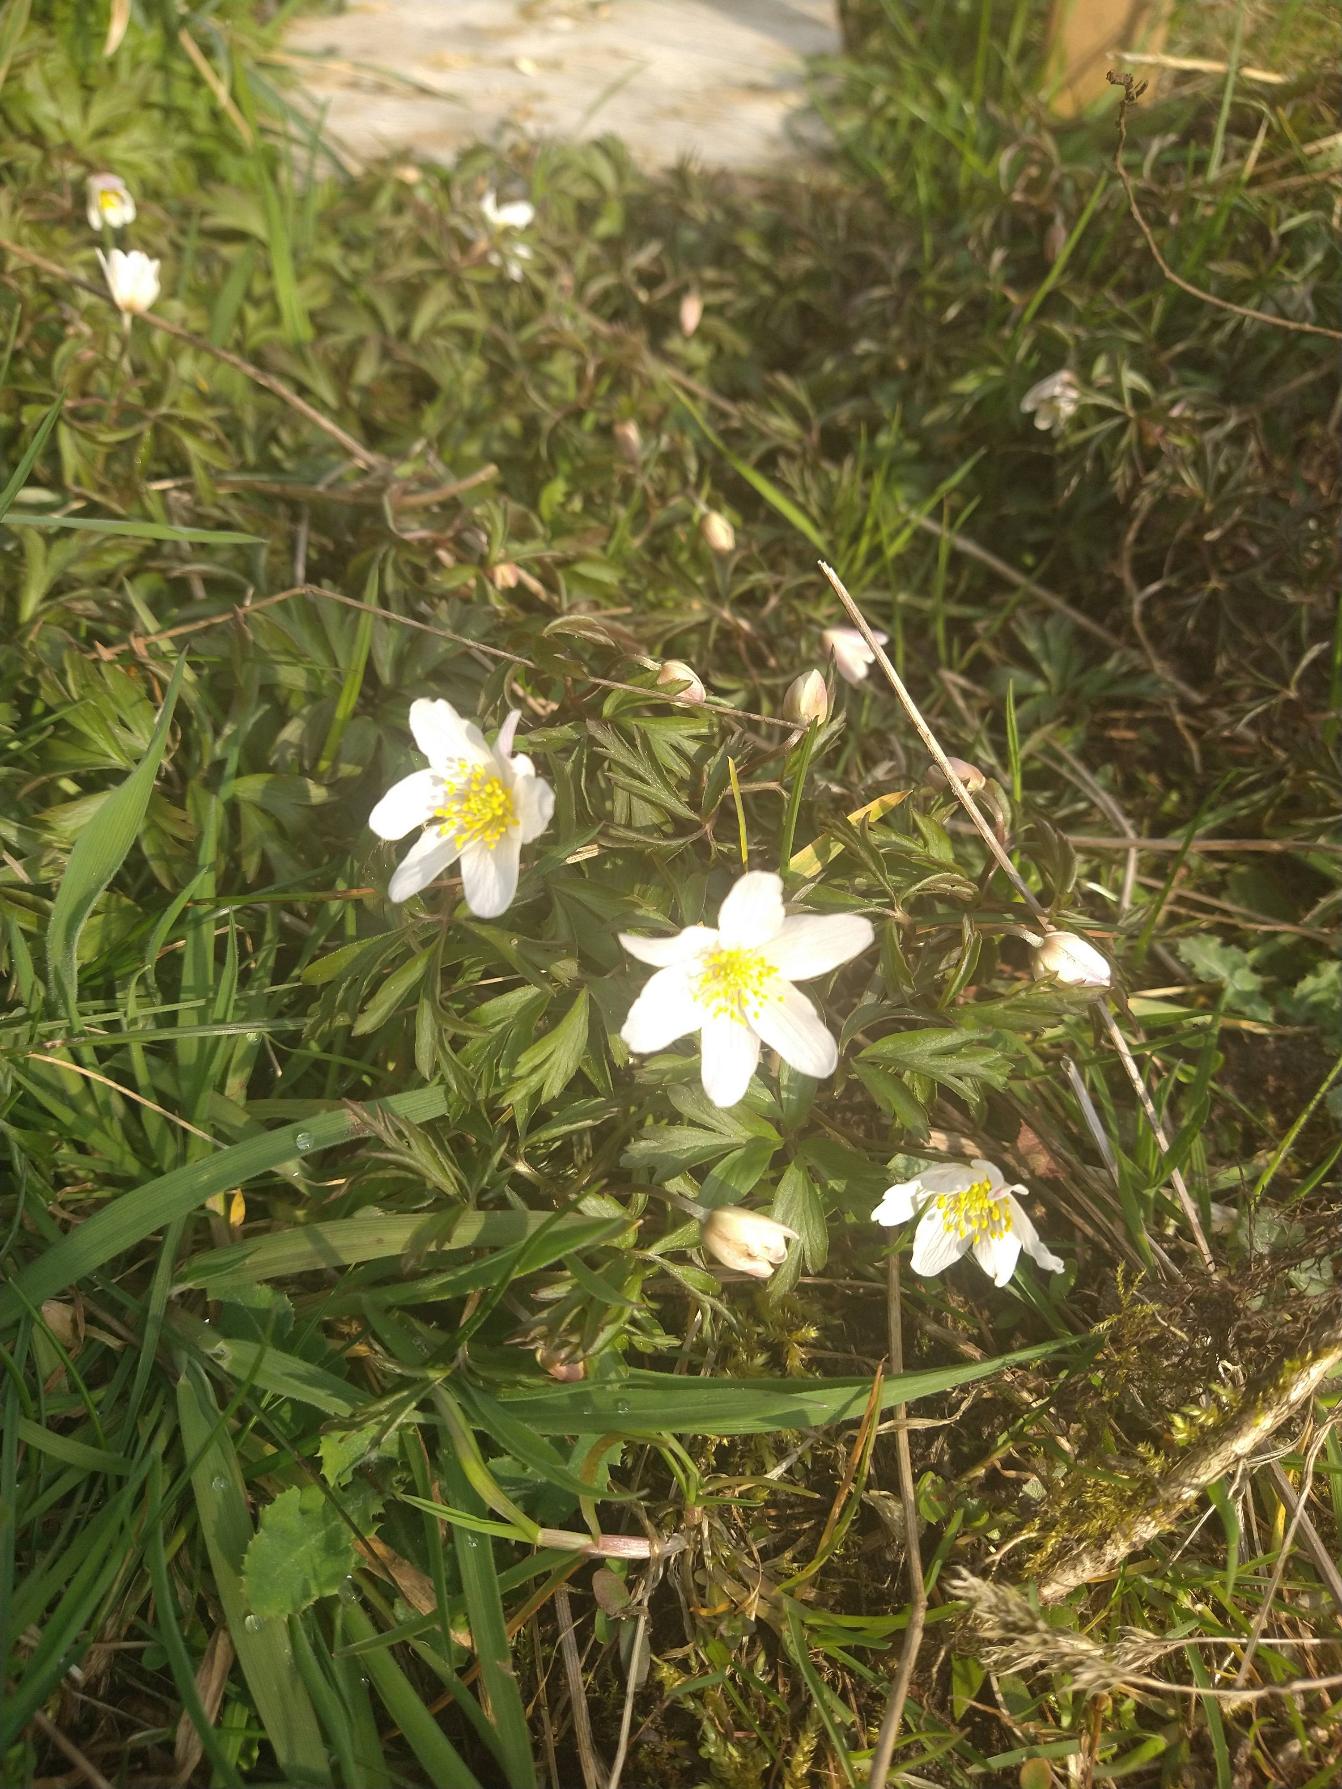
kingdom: Plantae
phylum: Tracheophyta
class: Magnoliopsida
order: Ranunculales
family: Ranunculaceae
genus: Anemone
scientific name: Anemone nemorosa
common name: Hvid anemone
